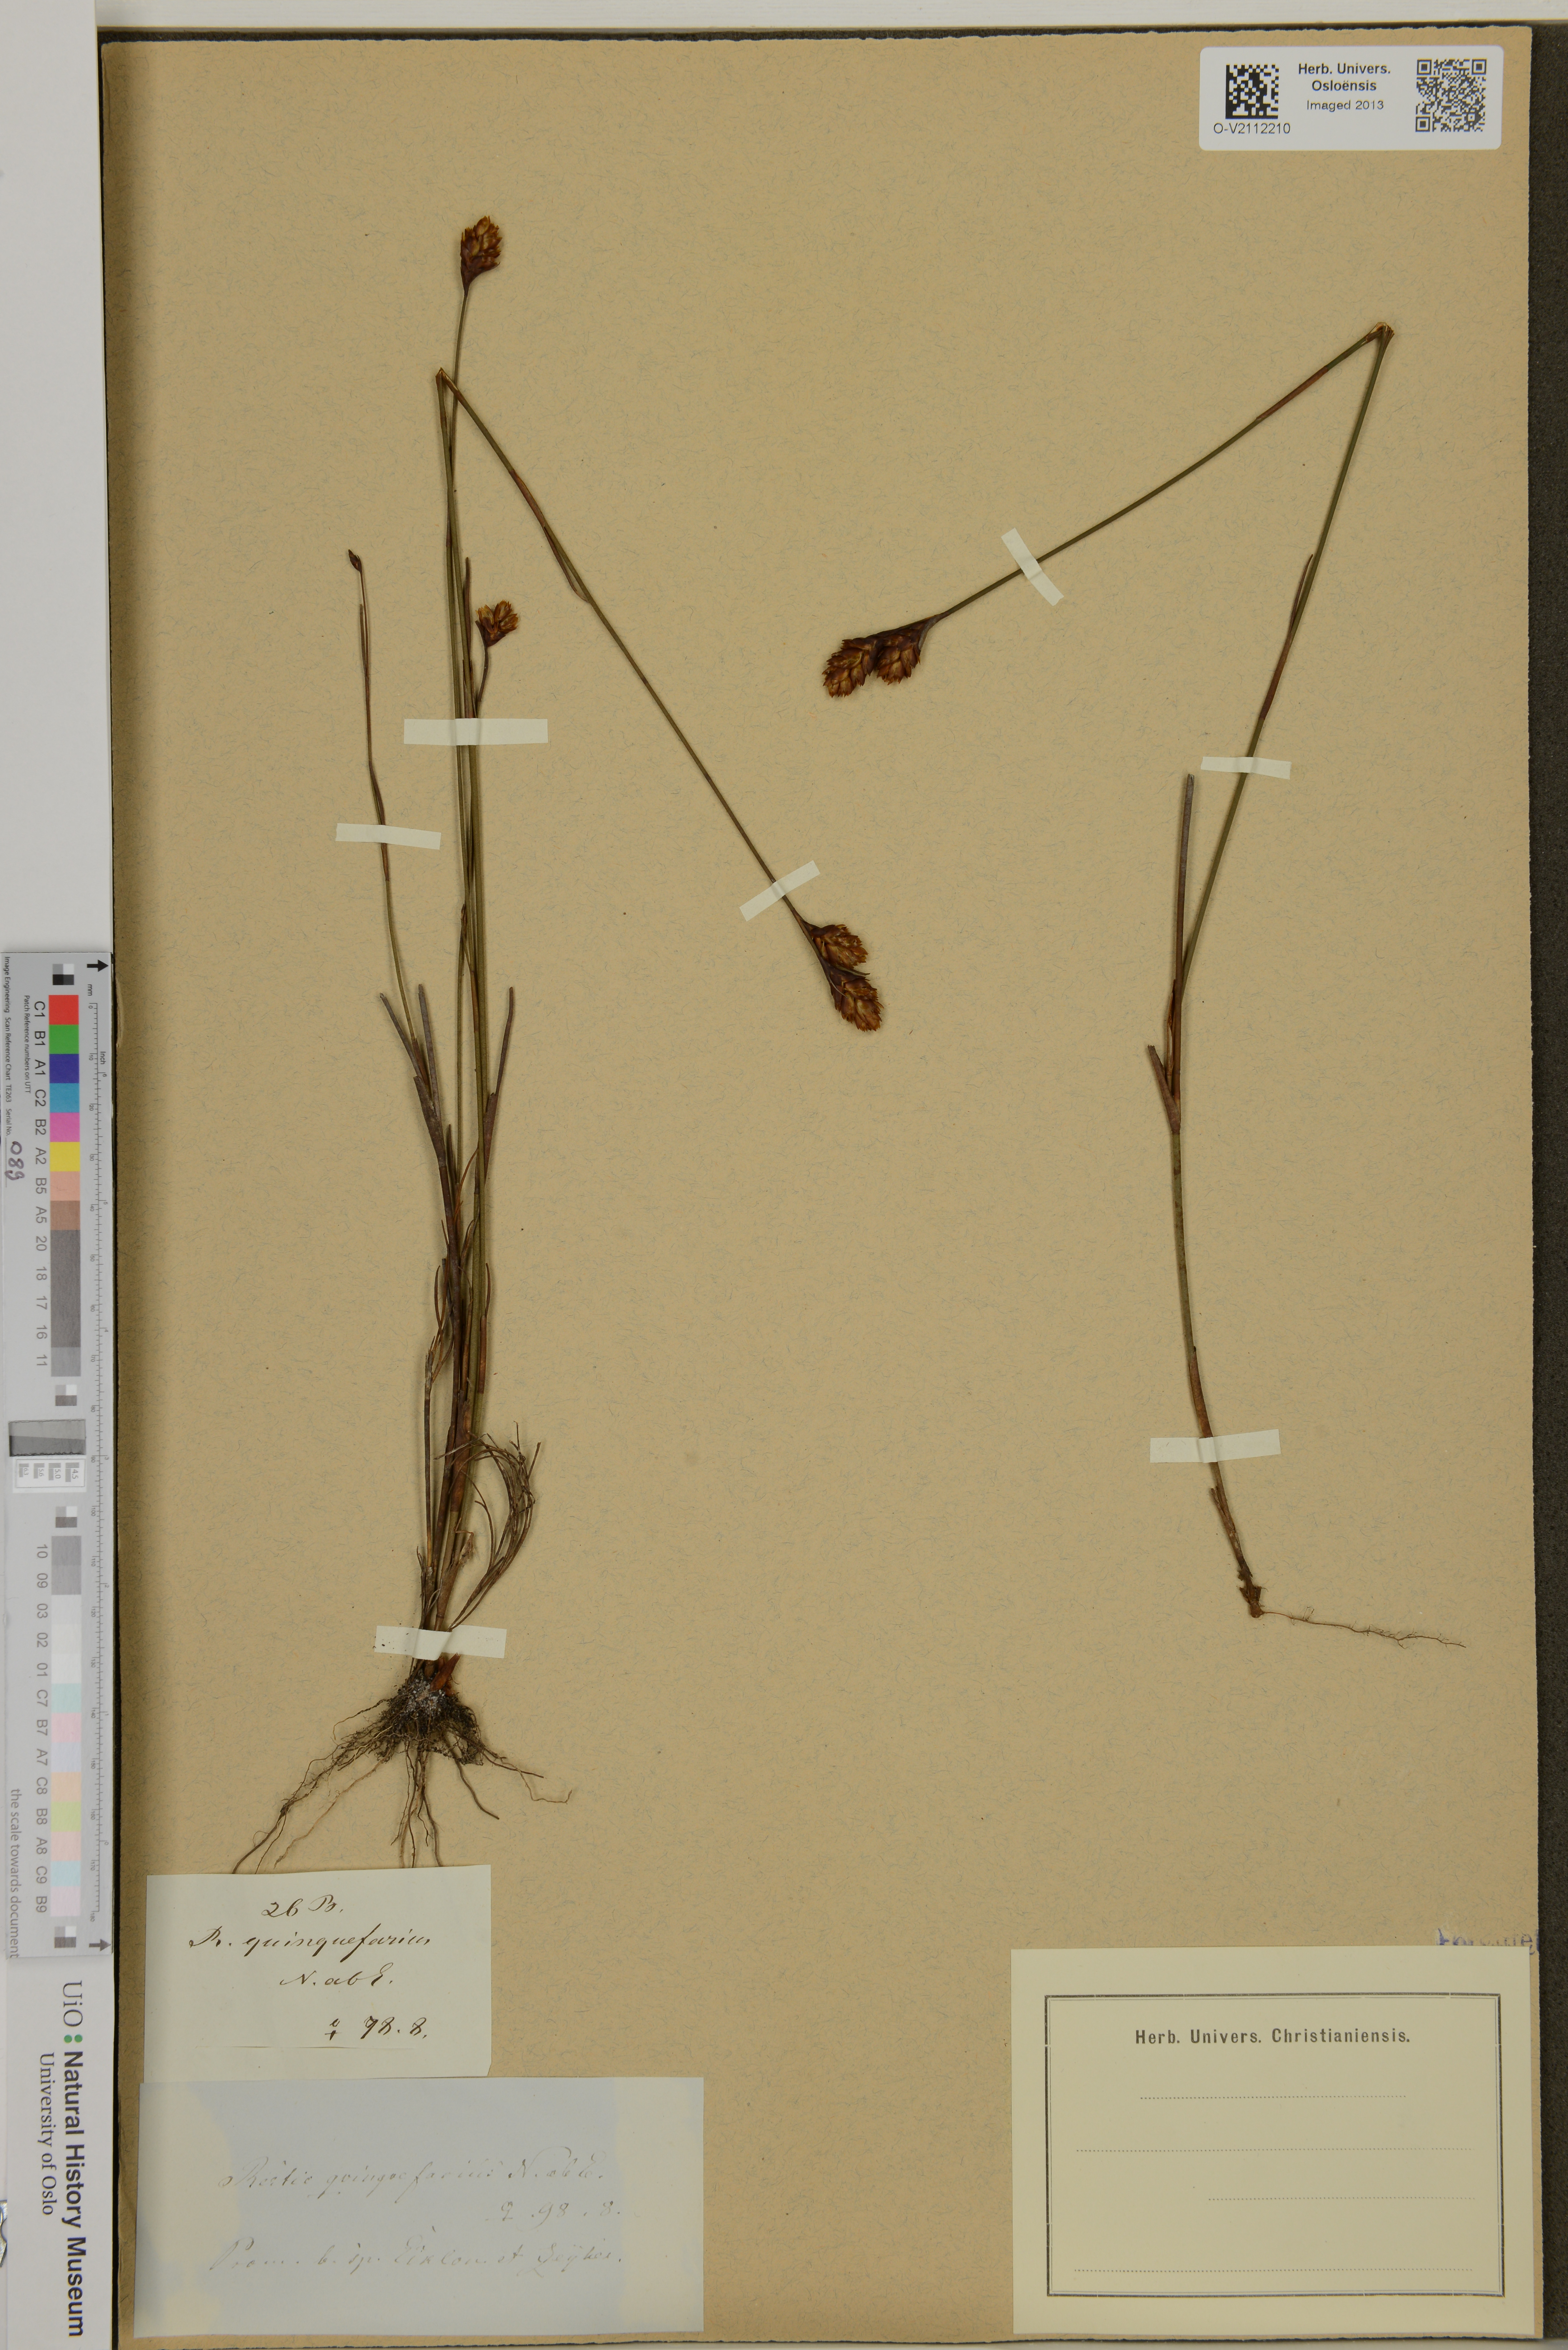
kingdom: Plantae
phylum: Tracheophyta
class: Liliopsida
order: Poales
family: Restionaceae
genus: Restio
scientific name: Restio quinquefarius
